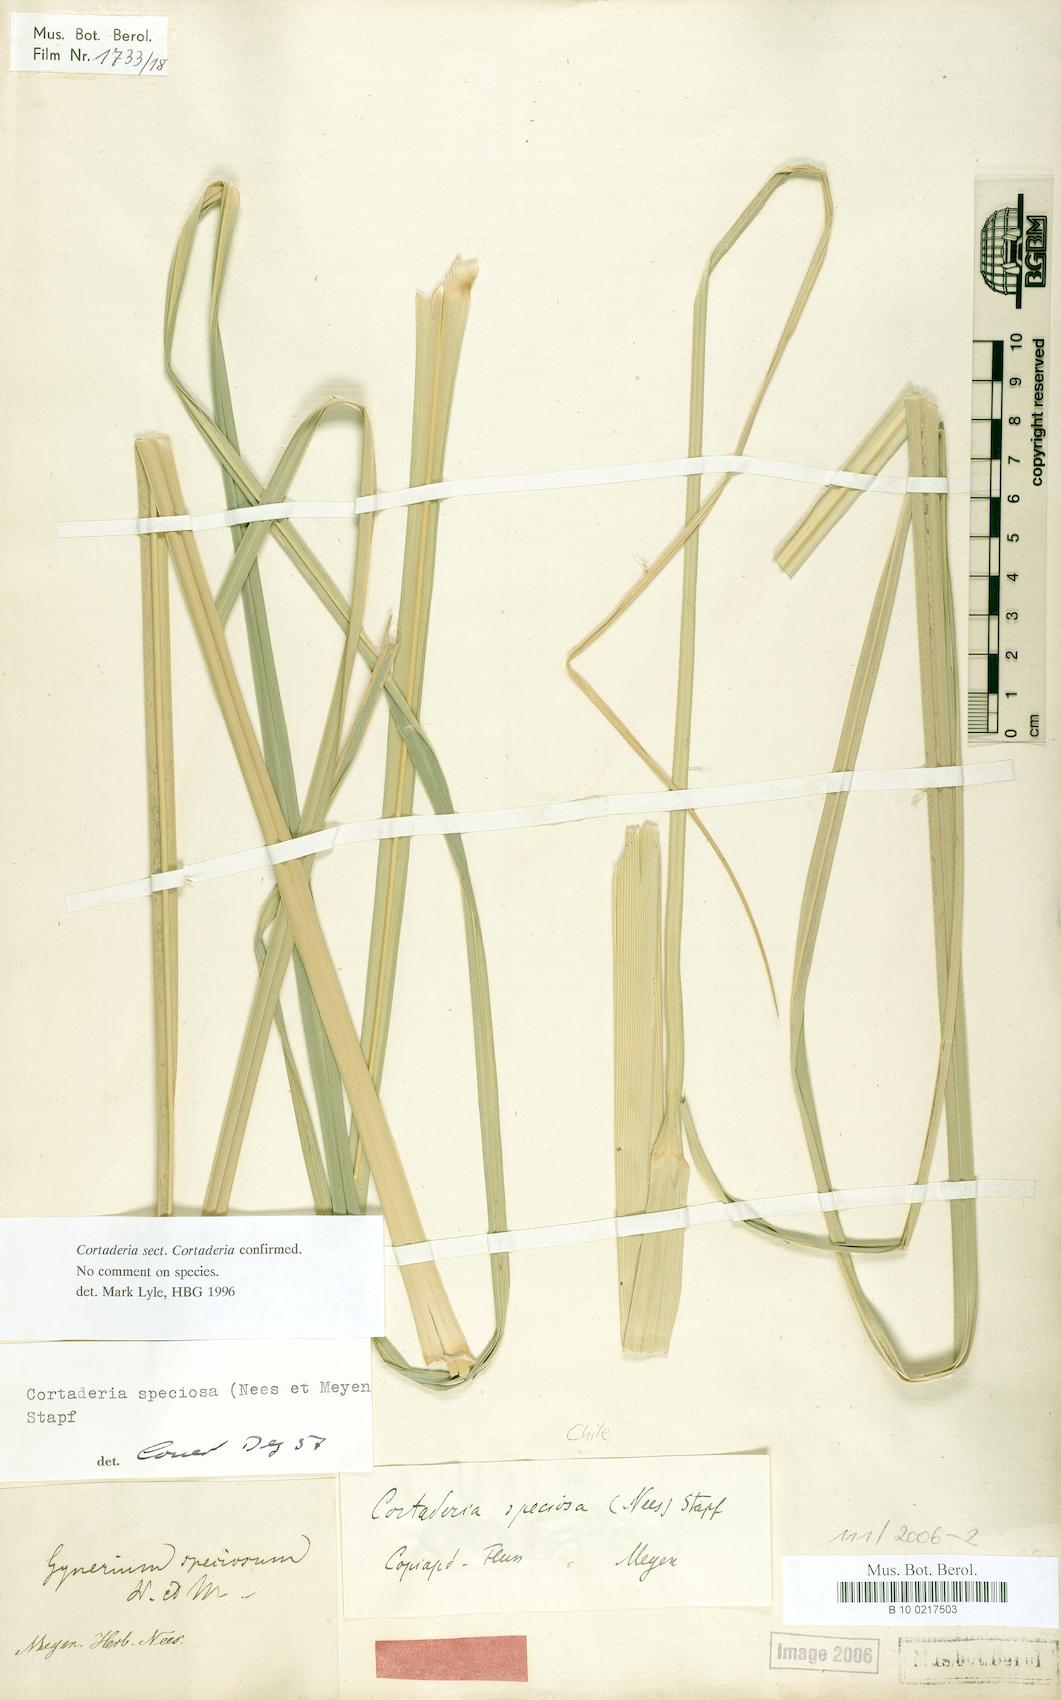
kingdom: Plantae
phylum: Tracheophyta
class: Liliopsida
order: Poales
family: Poaceae
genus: Cortaderia
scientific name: Cortaderia speciosa
